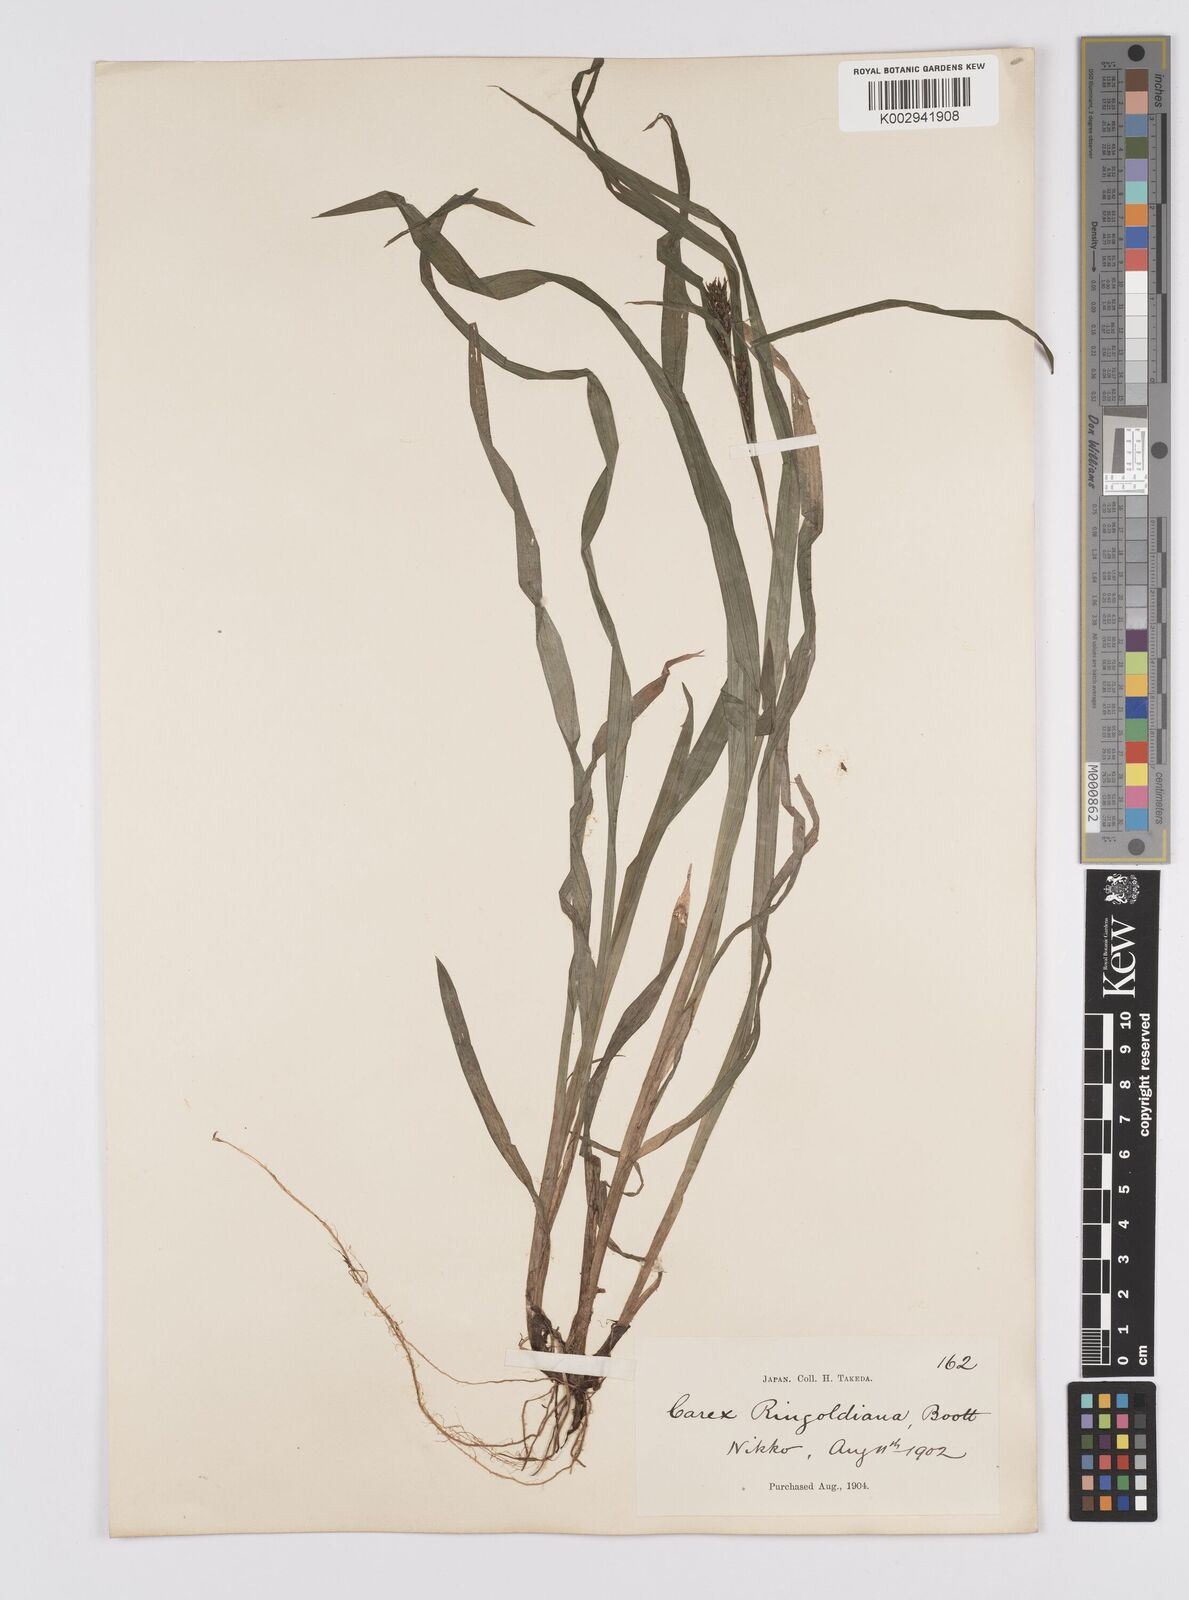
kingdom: Plantae
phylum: Tracheophyta
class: Liliopsida
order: Poales
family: Cyperaceae
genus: Carex
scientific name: Carex ischnostachya
